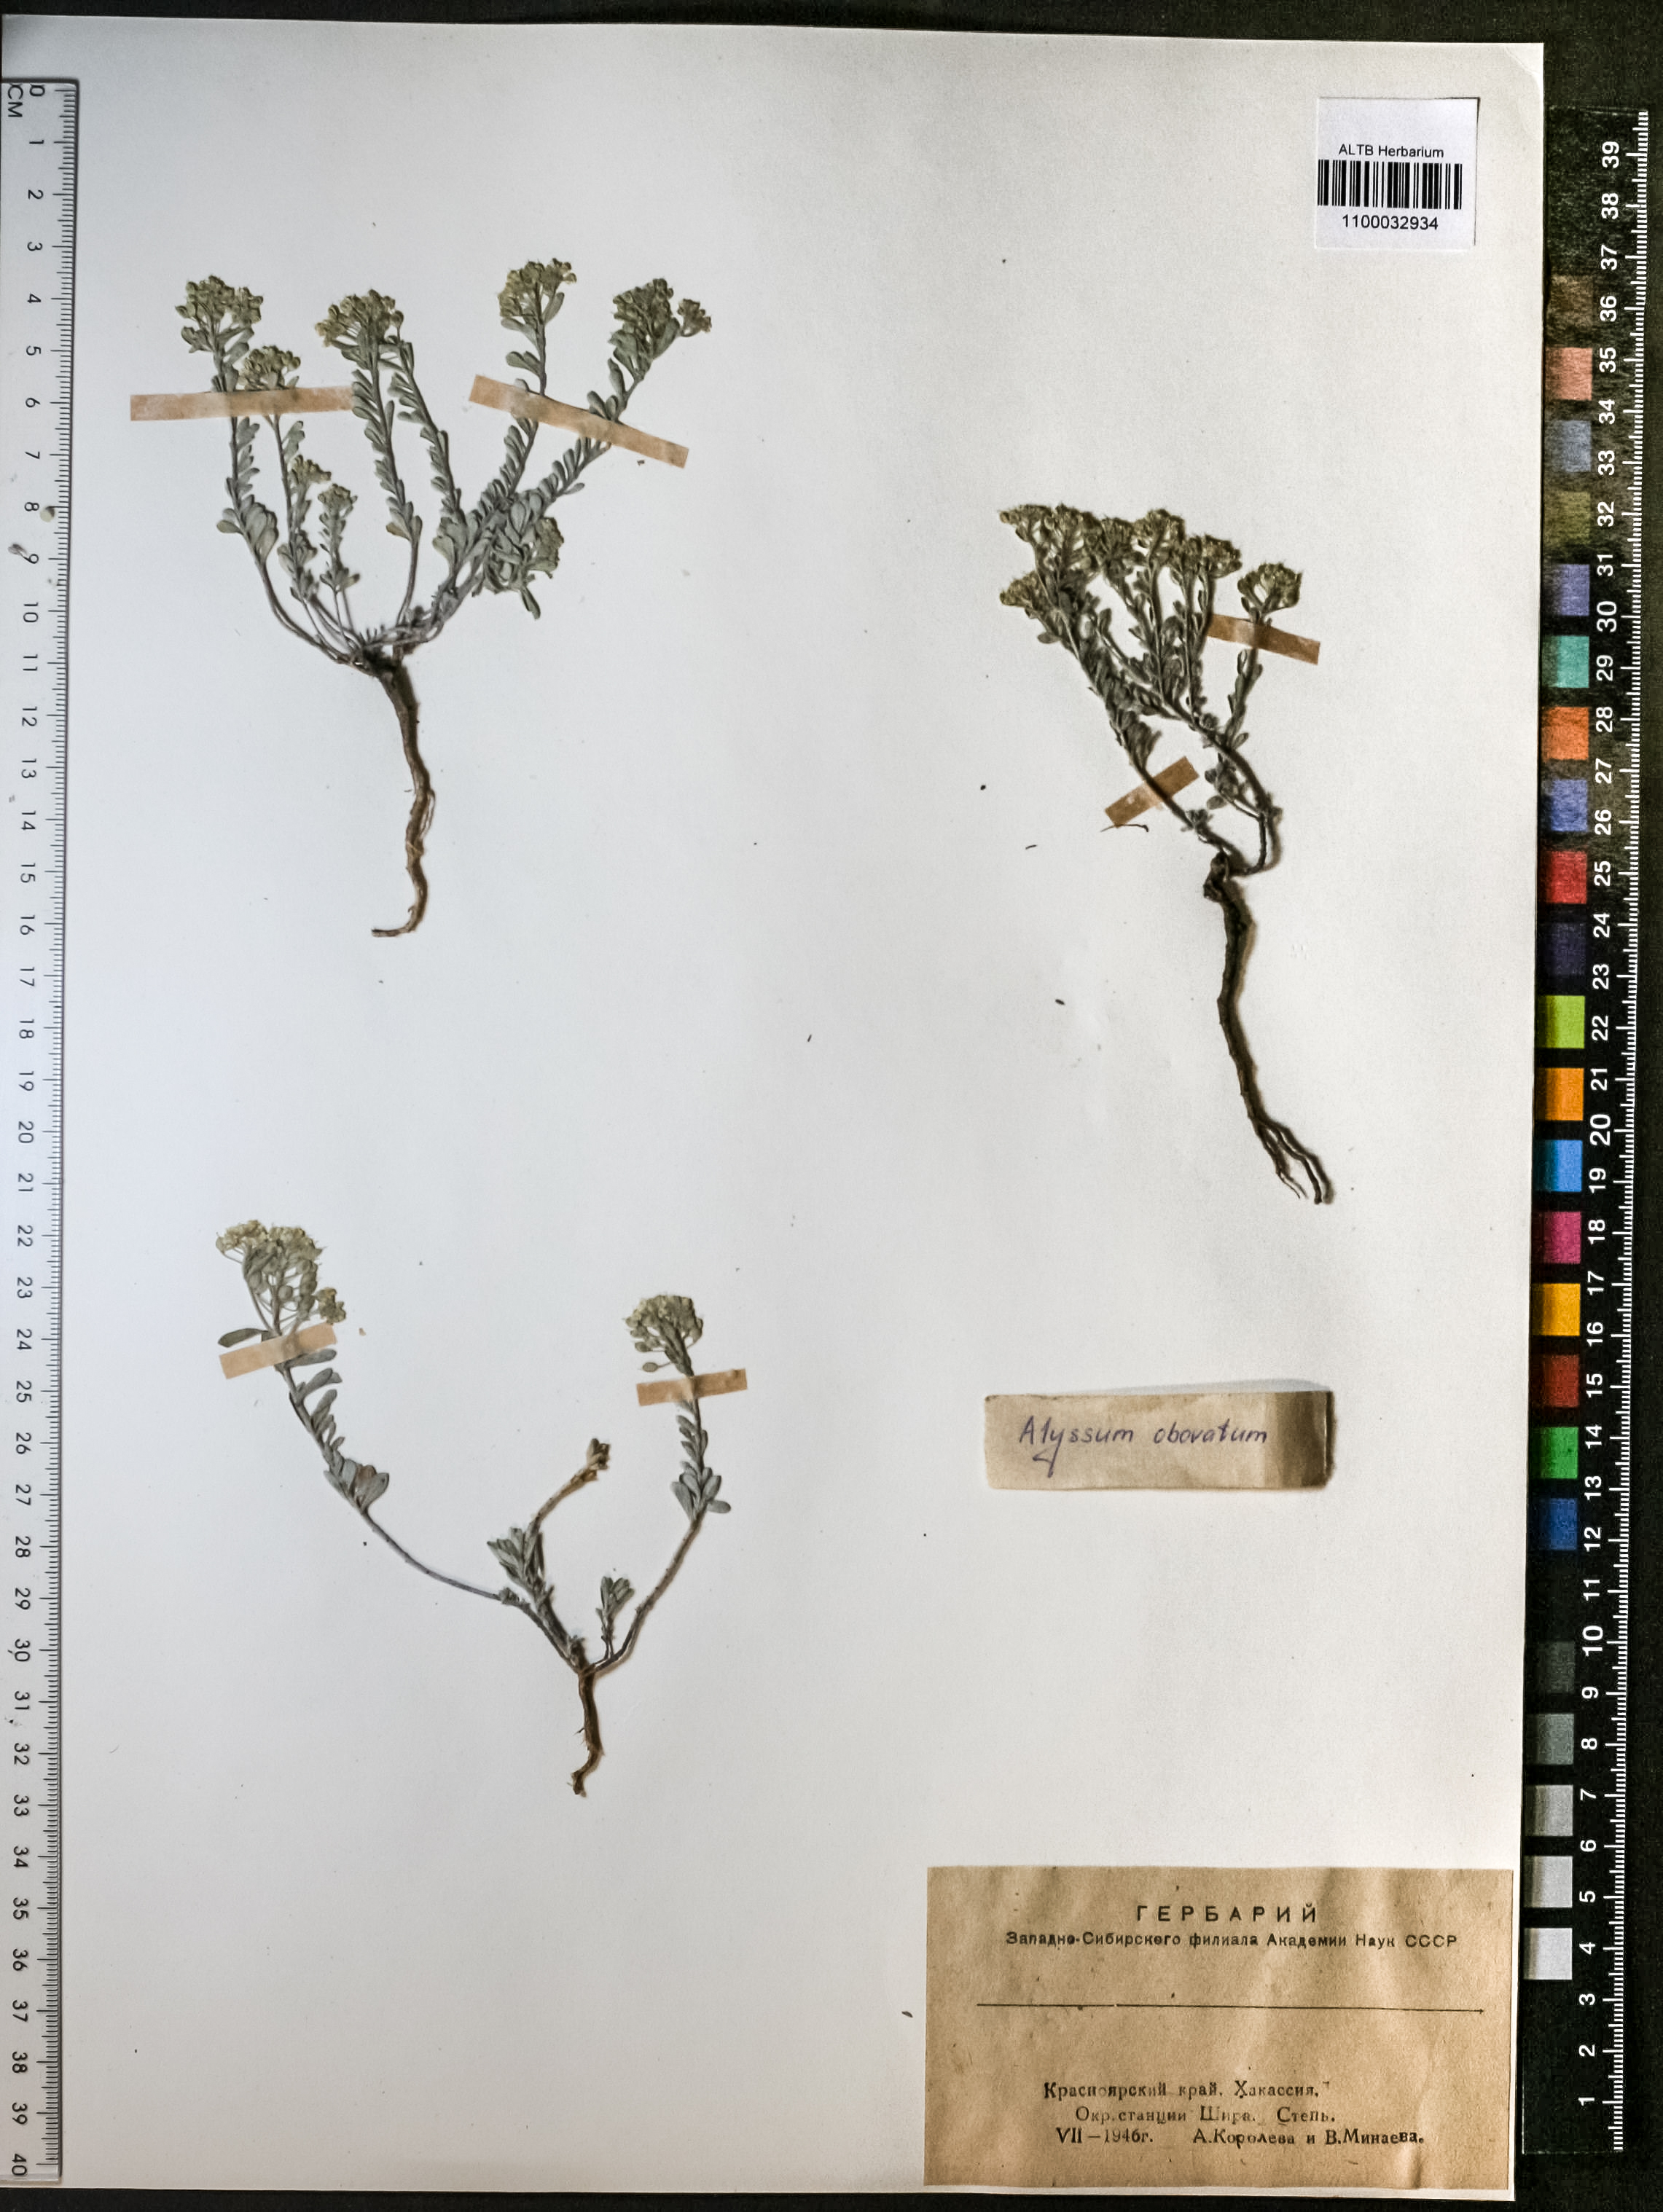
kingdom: Plantae
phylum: Tracheophyta
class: Magnoliopsida
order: Brassicales
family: Brassicaceae
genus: Odontarrhena
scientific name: Odontarrhena obovata
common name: American alyssum
